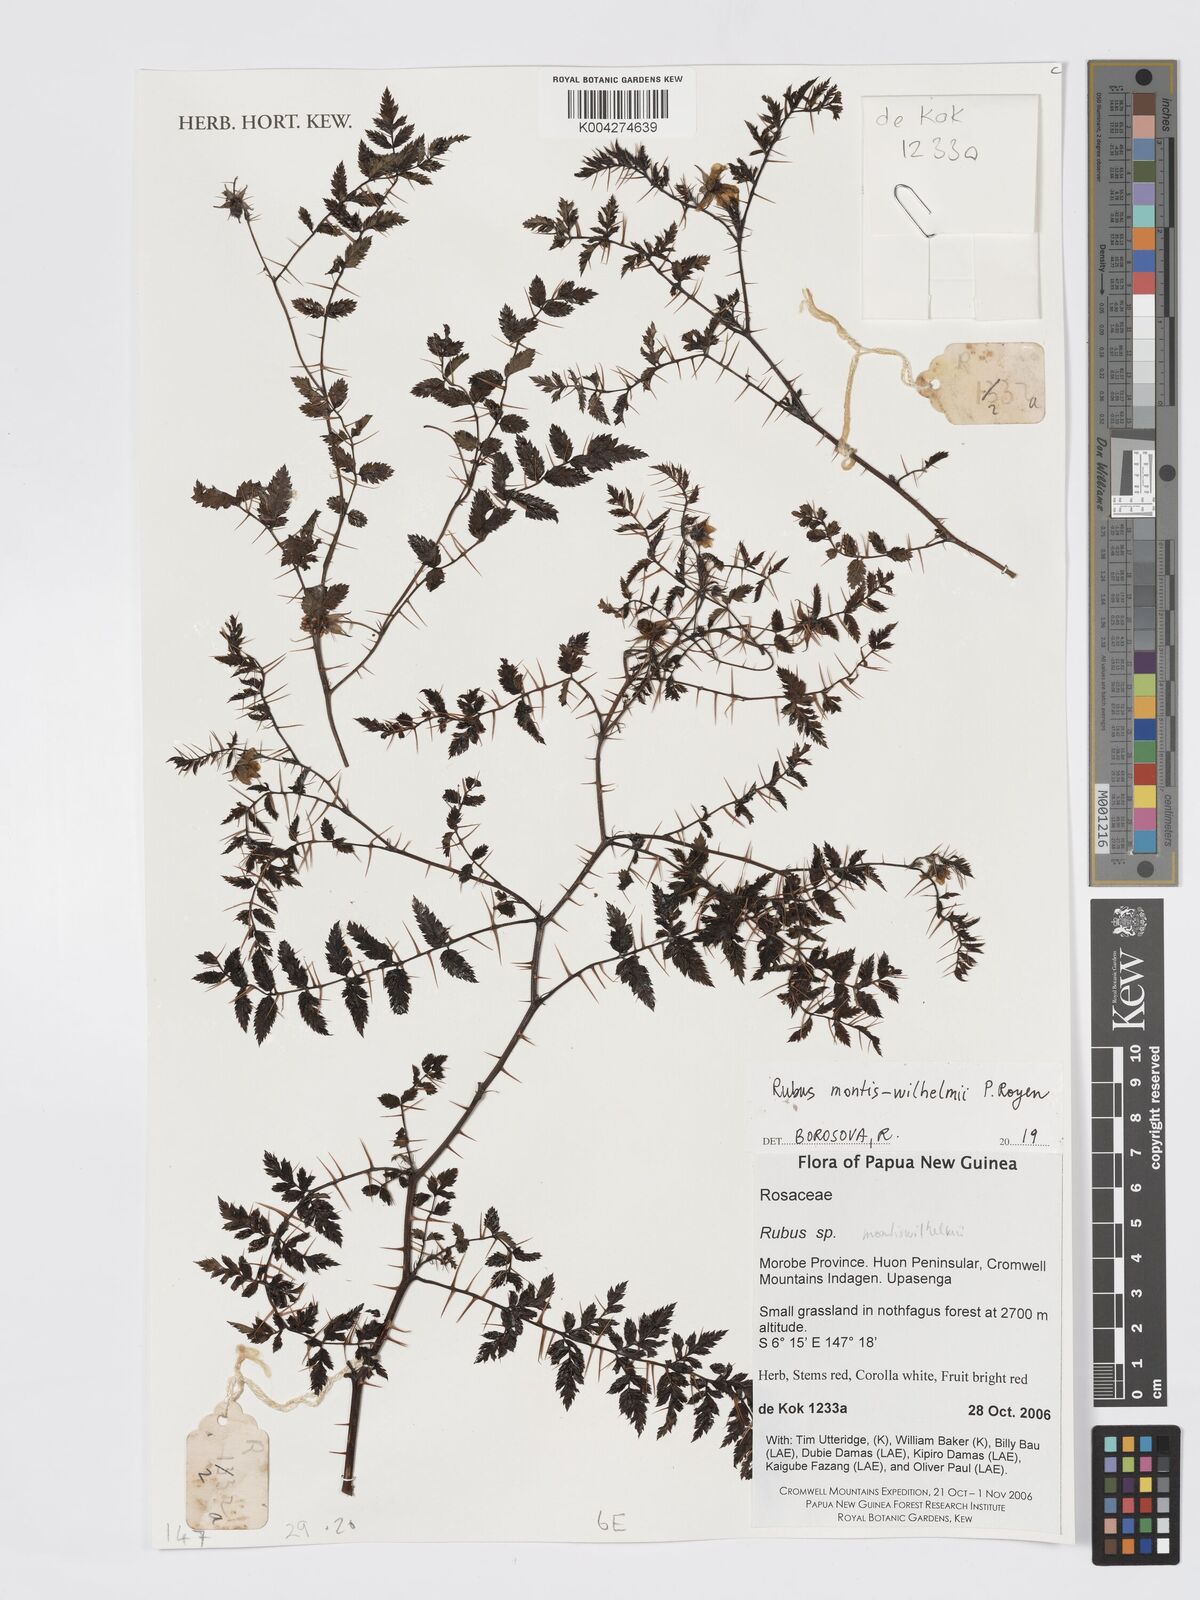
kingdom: Plantae
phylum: Tracheophyta
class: Magnoliopsida
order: Rosales
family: Rosaceae
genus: Rubus
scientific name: Rubus montis-wilhelmii
